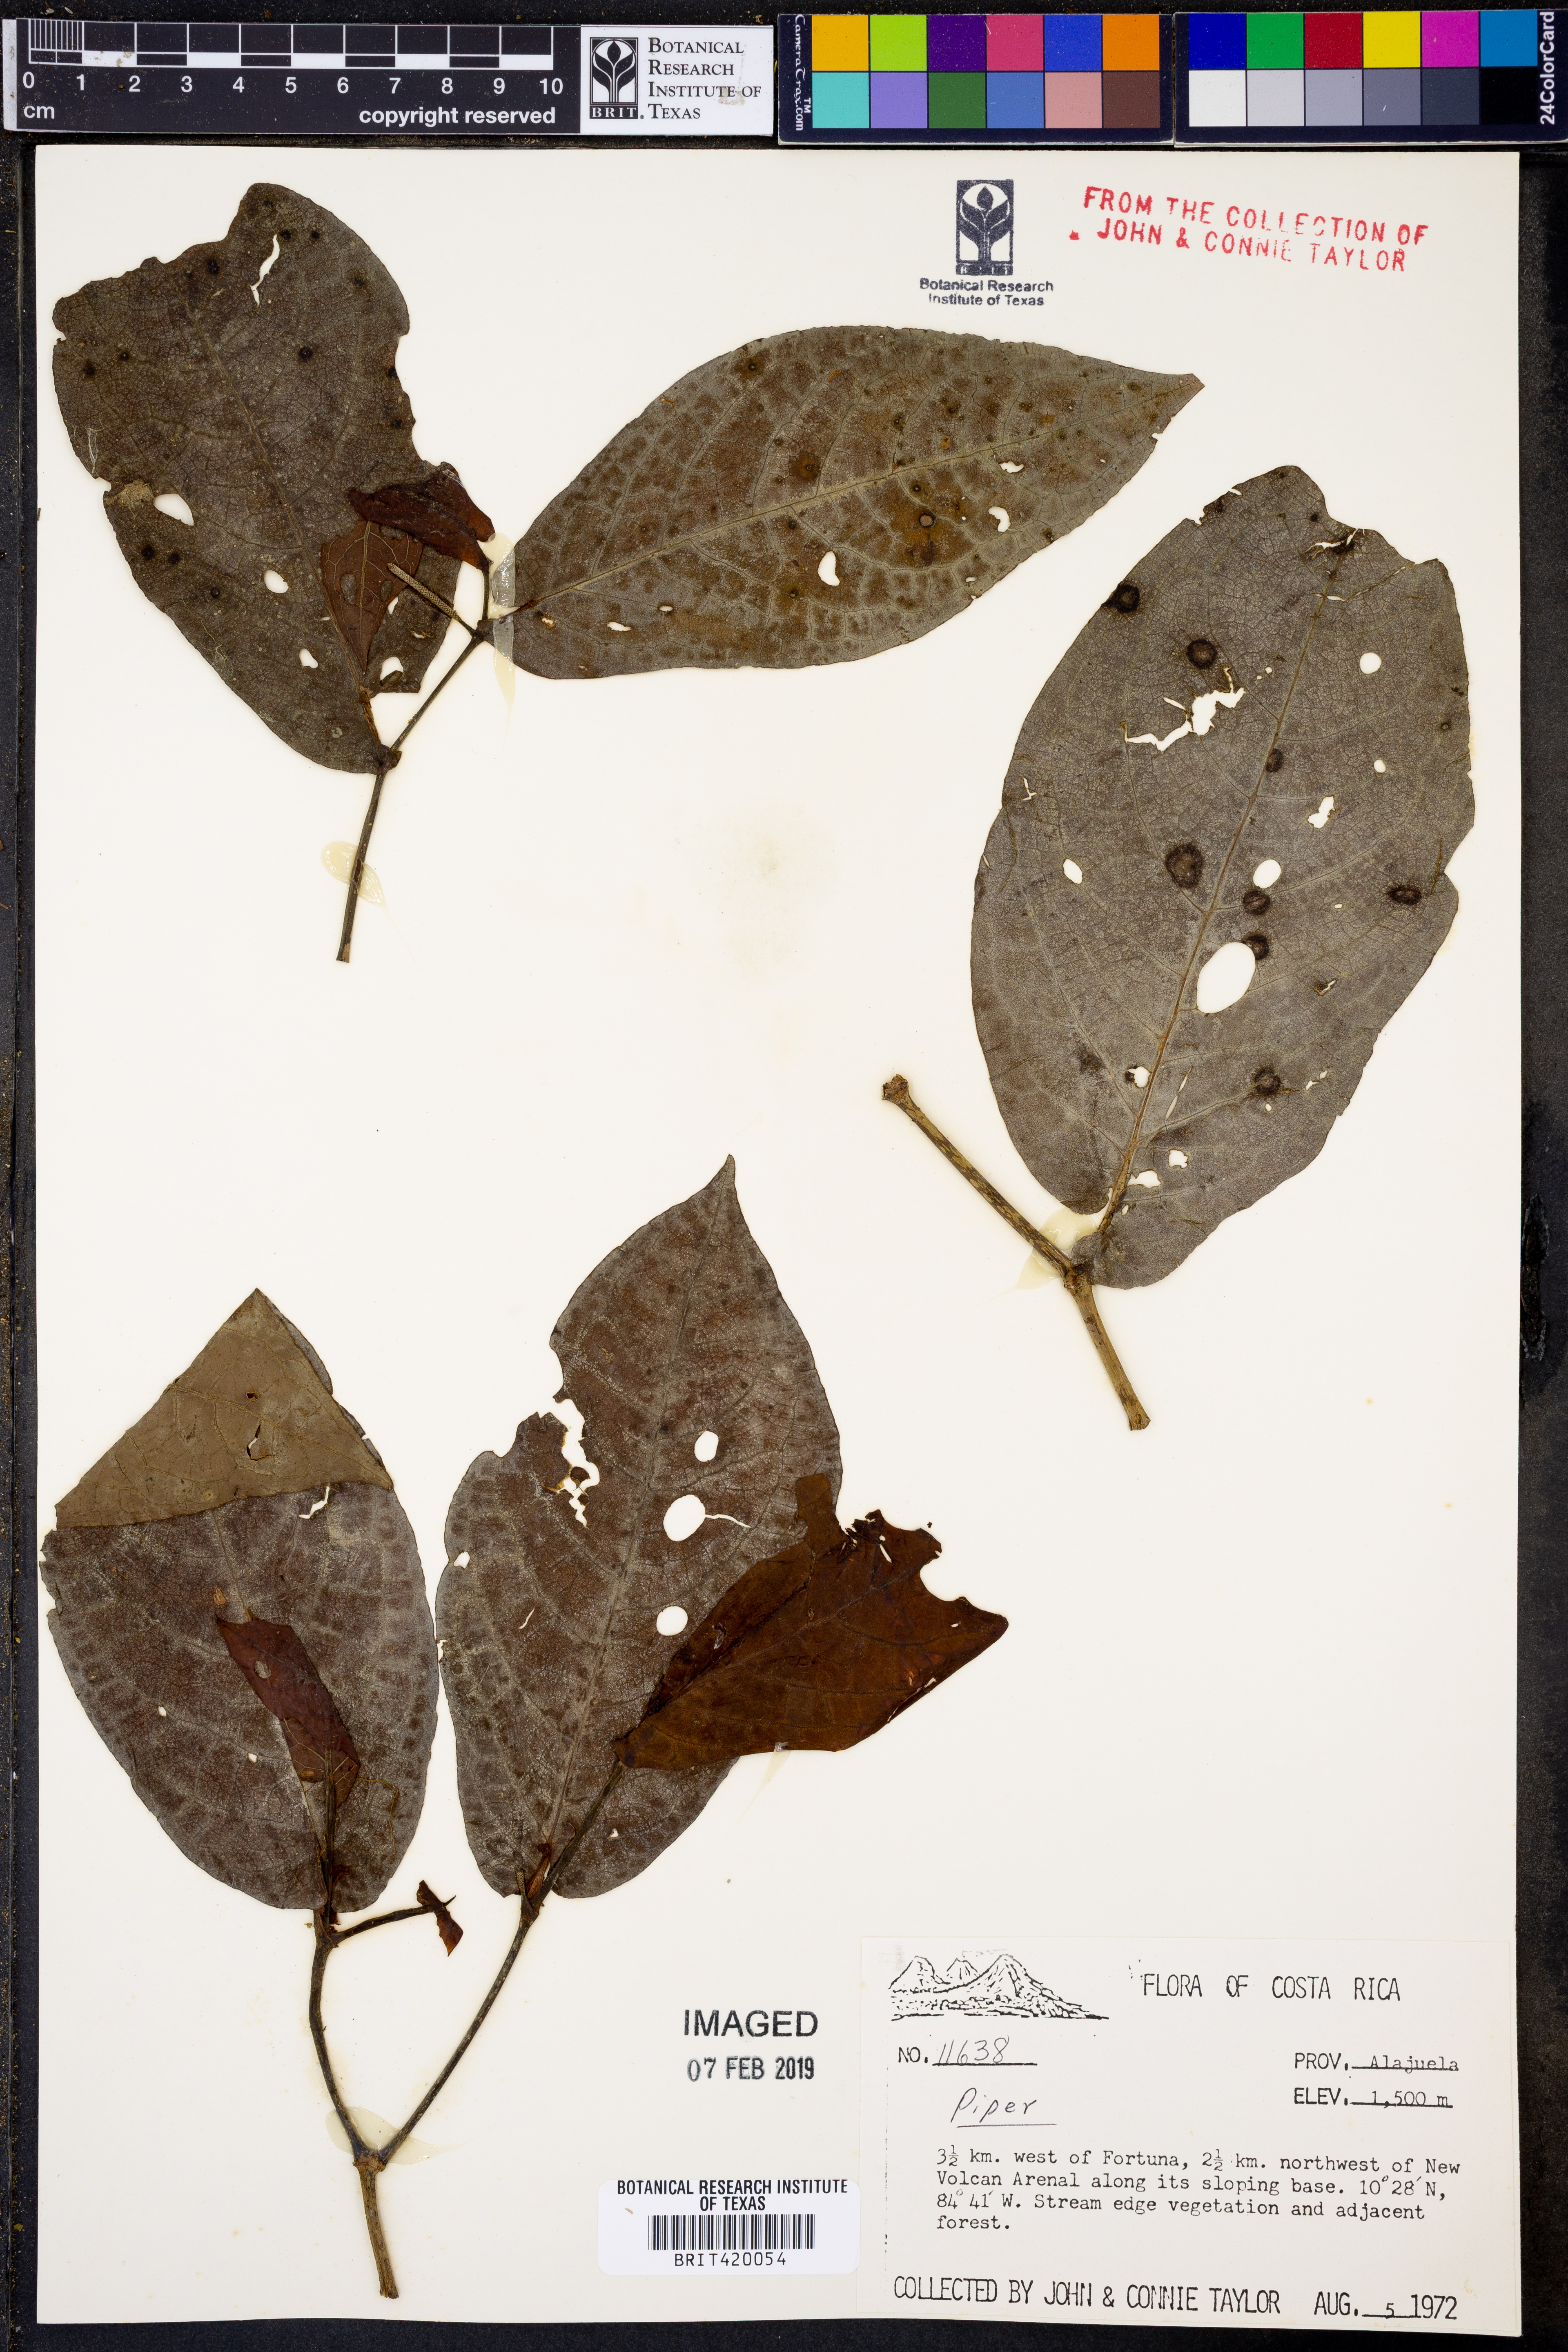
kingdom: Plantae
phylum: Tracheophyta
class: Magnoliopsida
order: Piperales
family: Piperaceae
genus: Piper
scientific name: Piper
